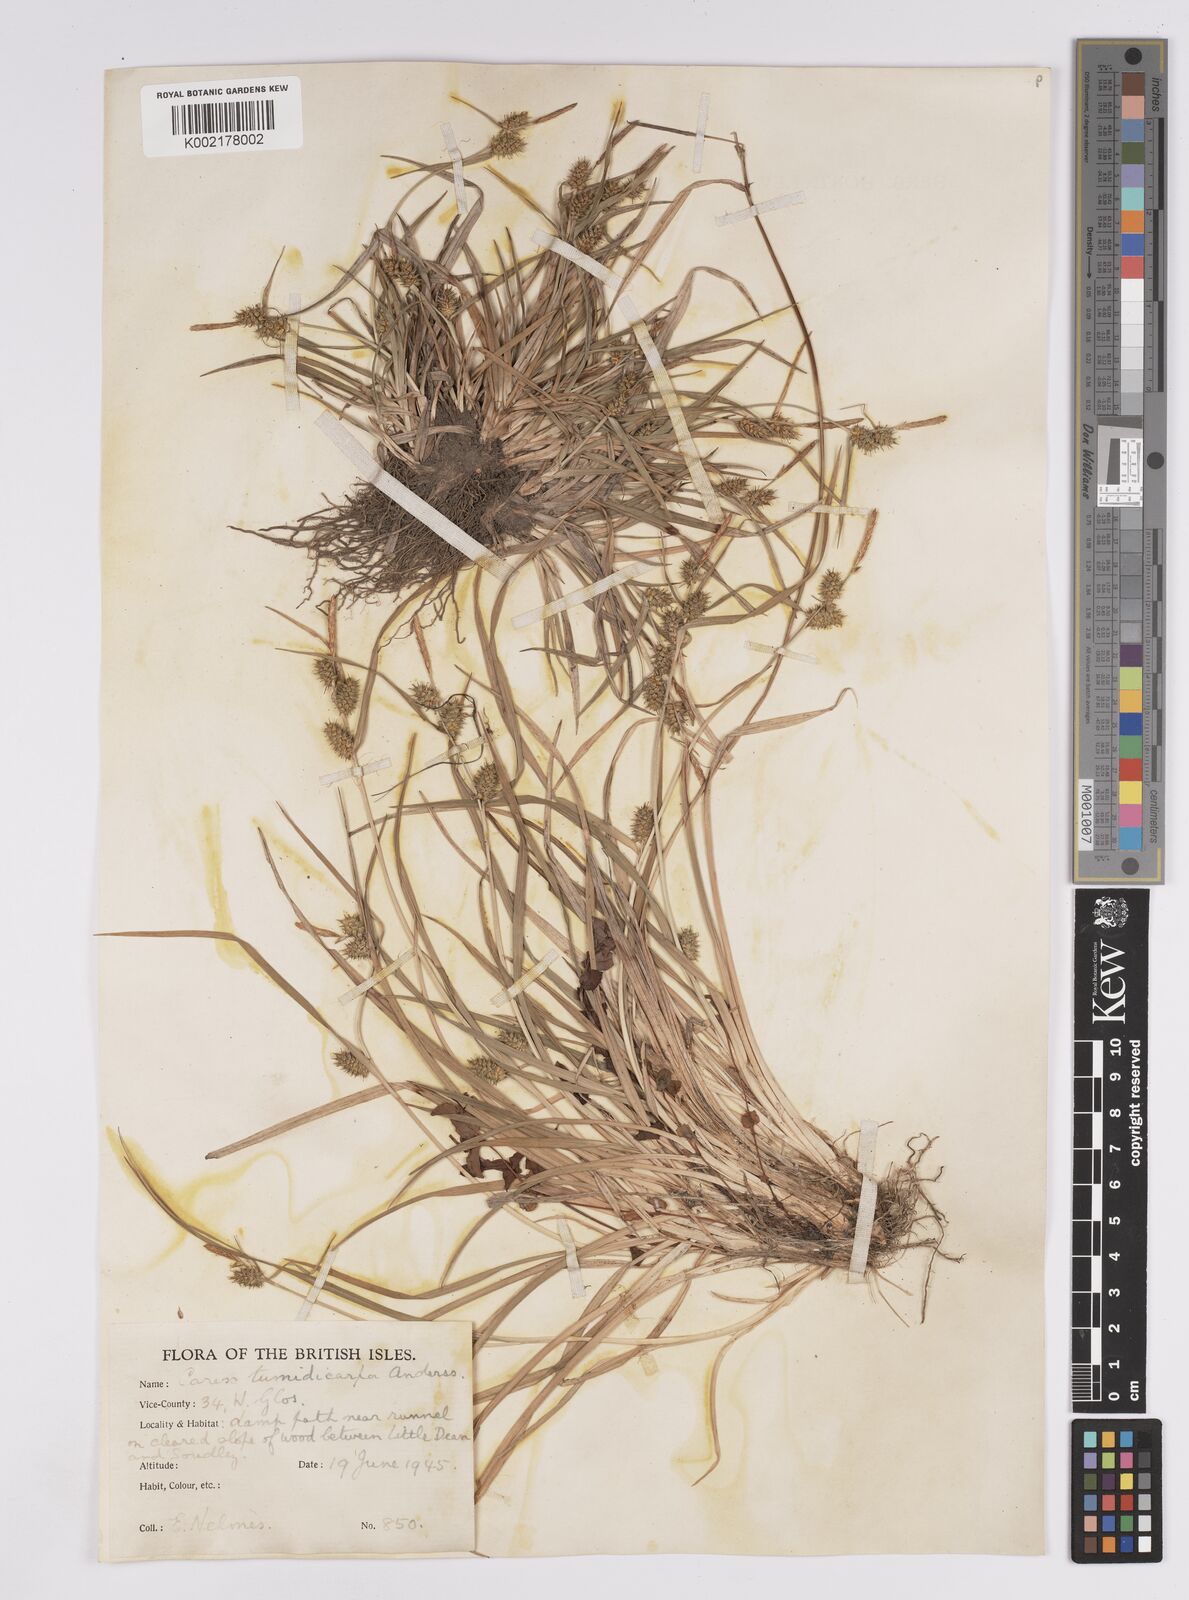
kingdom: Plantae
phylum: Tracheophyta
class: Liliopsida
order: Poales
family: Cyperaceae
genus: Carex
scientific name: Carex demissa
